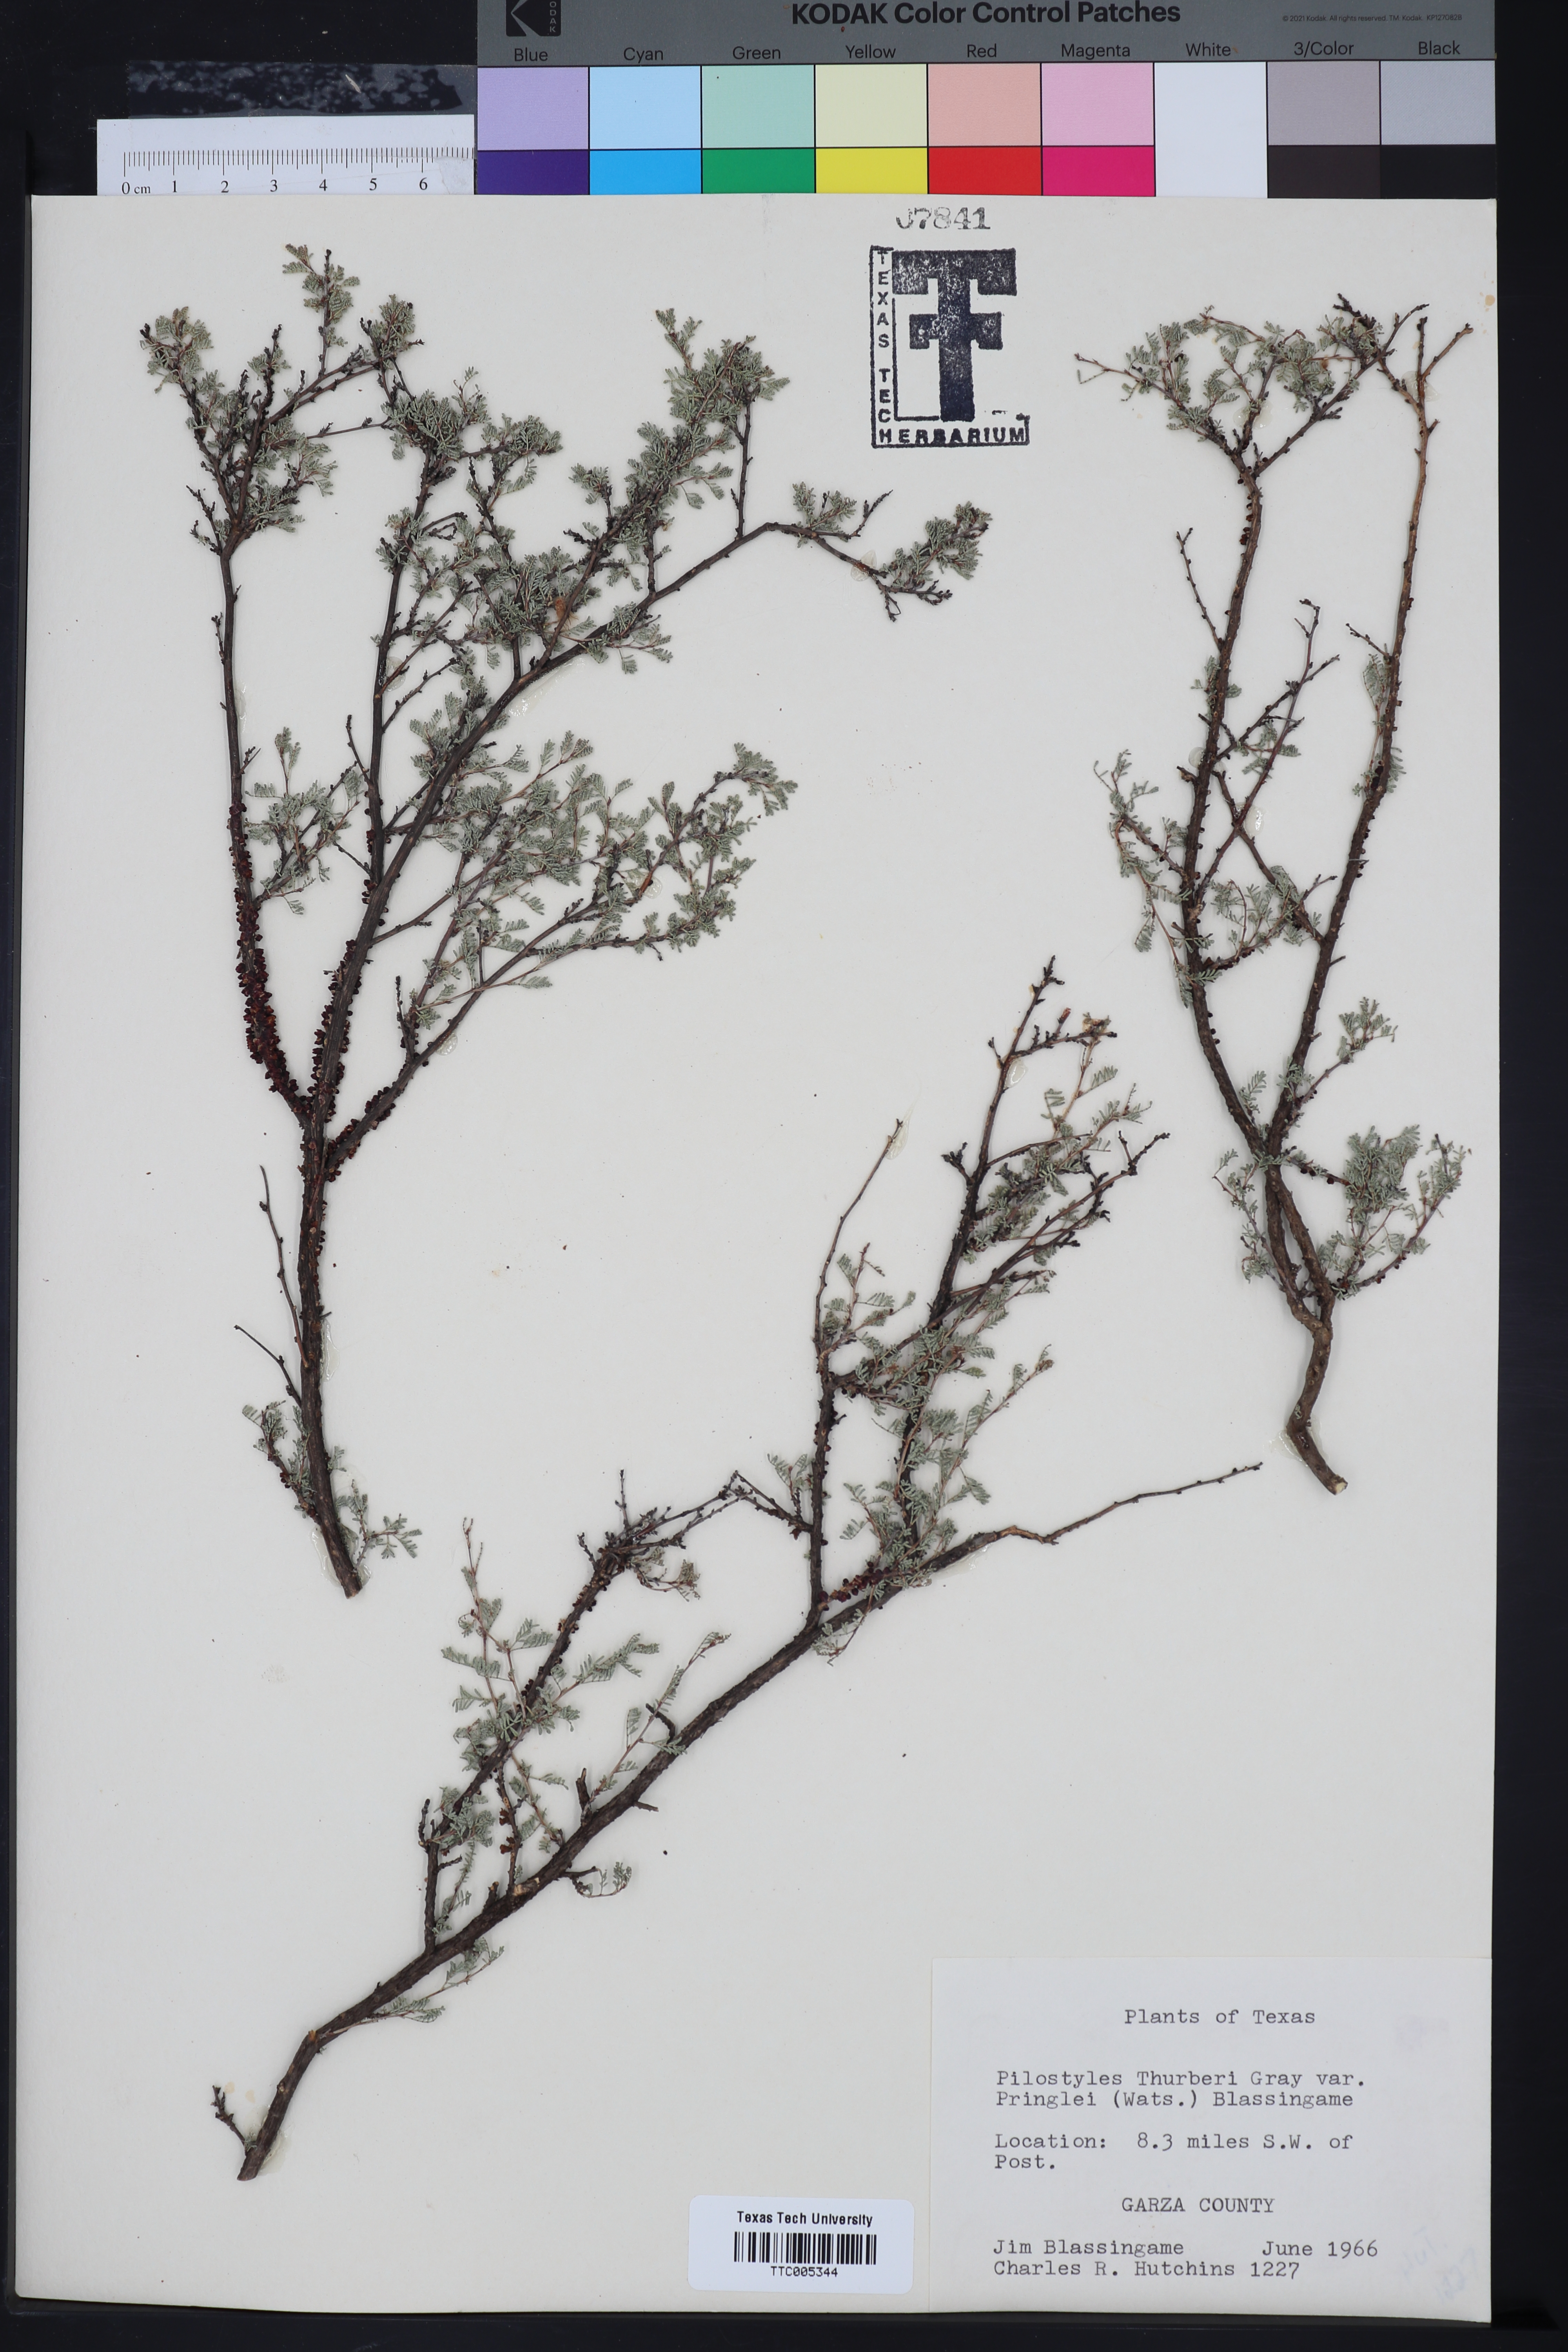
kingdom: Plantae
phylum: Tracheophyta
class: Magnoliopsida
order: Cucurbitales
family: Apodanthaceae
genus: Pilostyles
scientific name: Pilostyles thurberi
